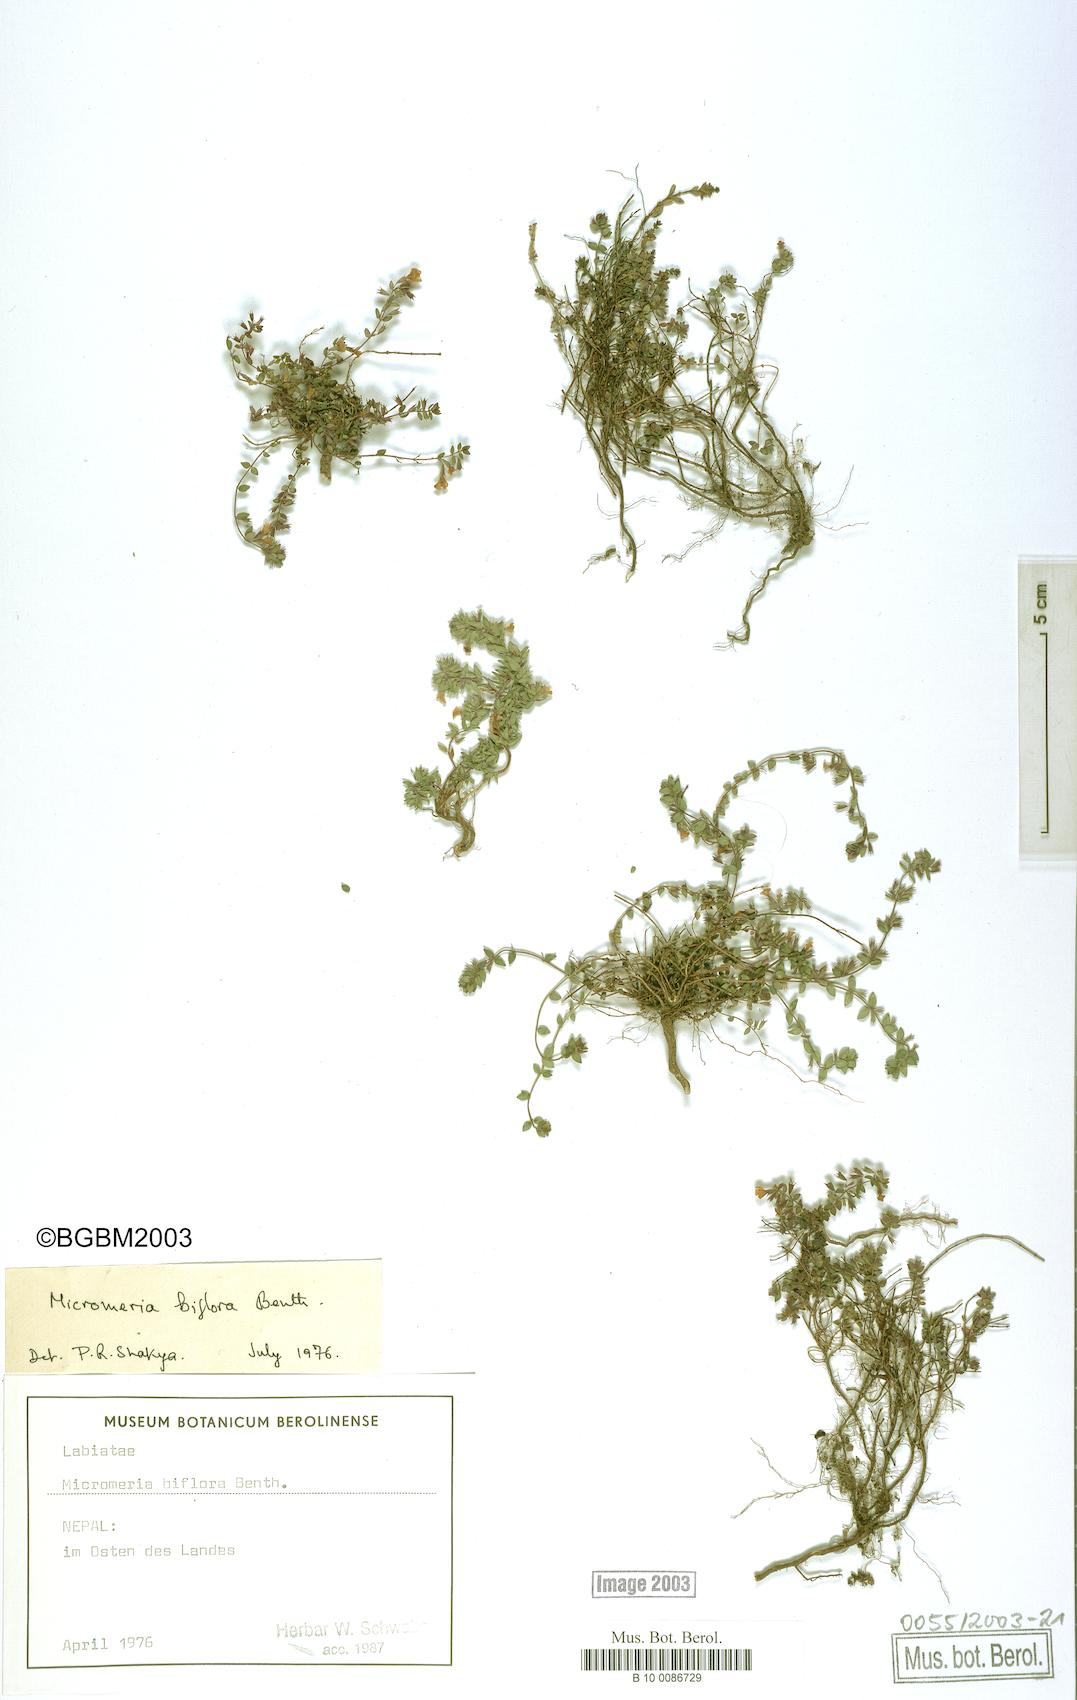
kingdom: Plantae
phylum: Tracheophyta
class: Magnoliopsida
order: Lamiales
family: Lamiaceae
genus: Micromeria
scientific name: Micromeria biflora
